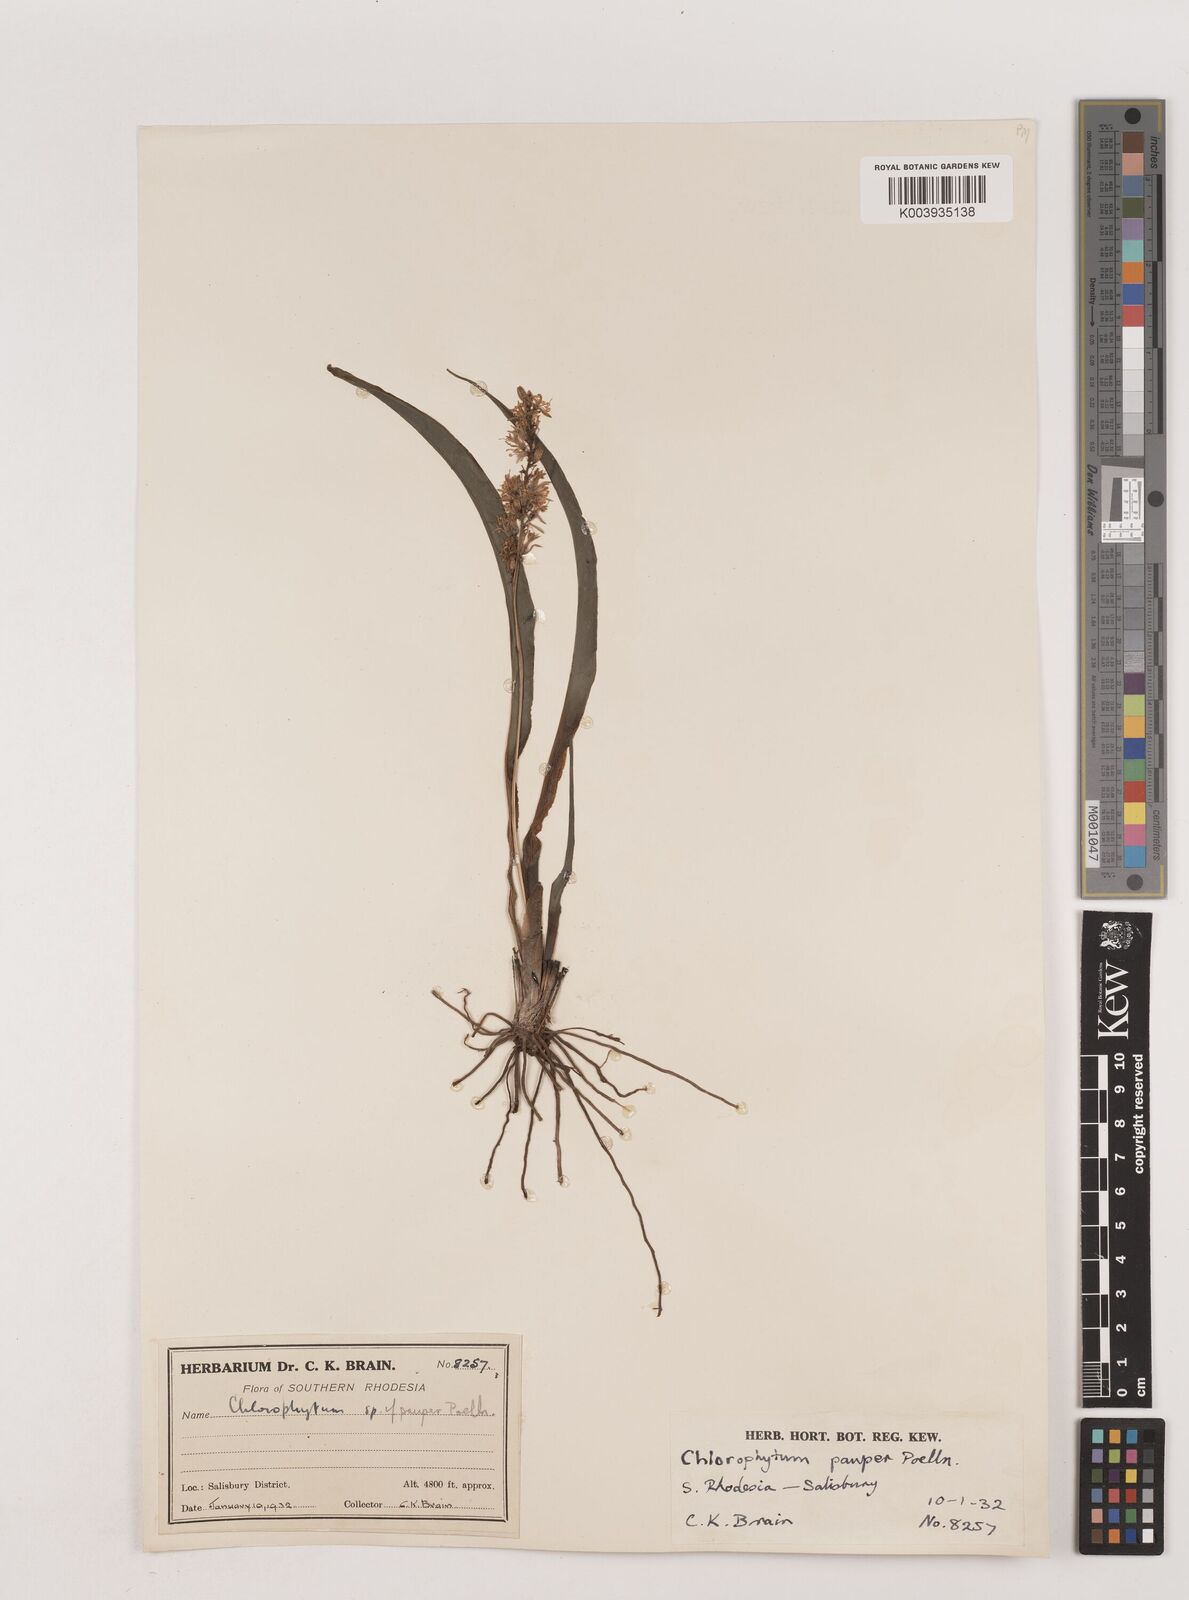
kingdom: Plantae
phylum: Tracheophyta
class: Liliopsida
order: Asparagales
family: Asparagaceae
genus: Chlorophytum
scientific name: Chlorophytum pauper
